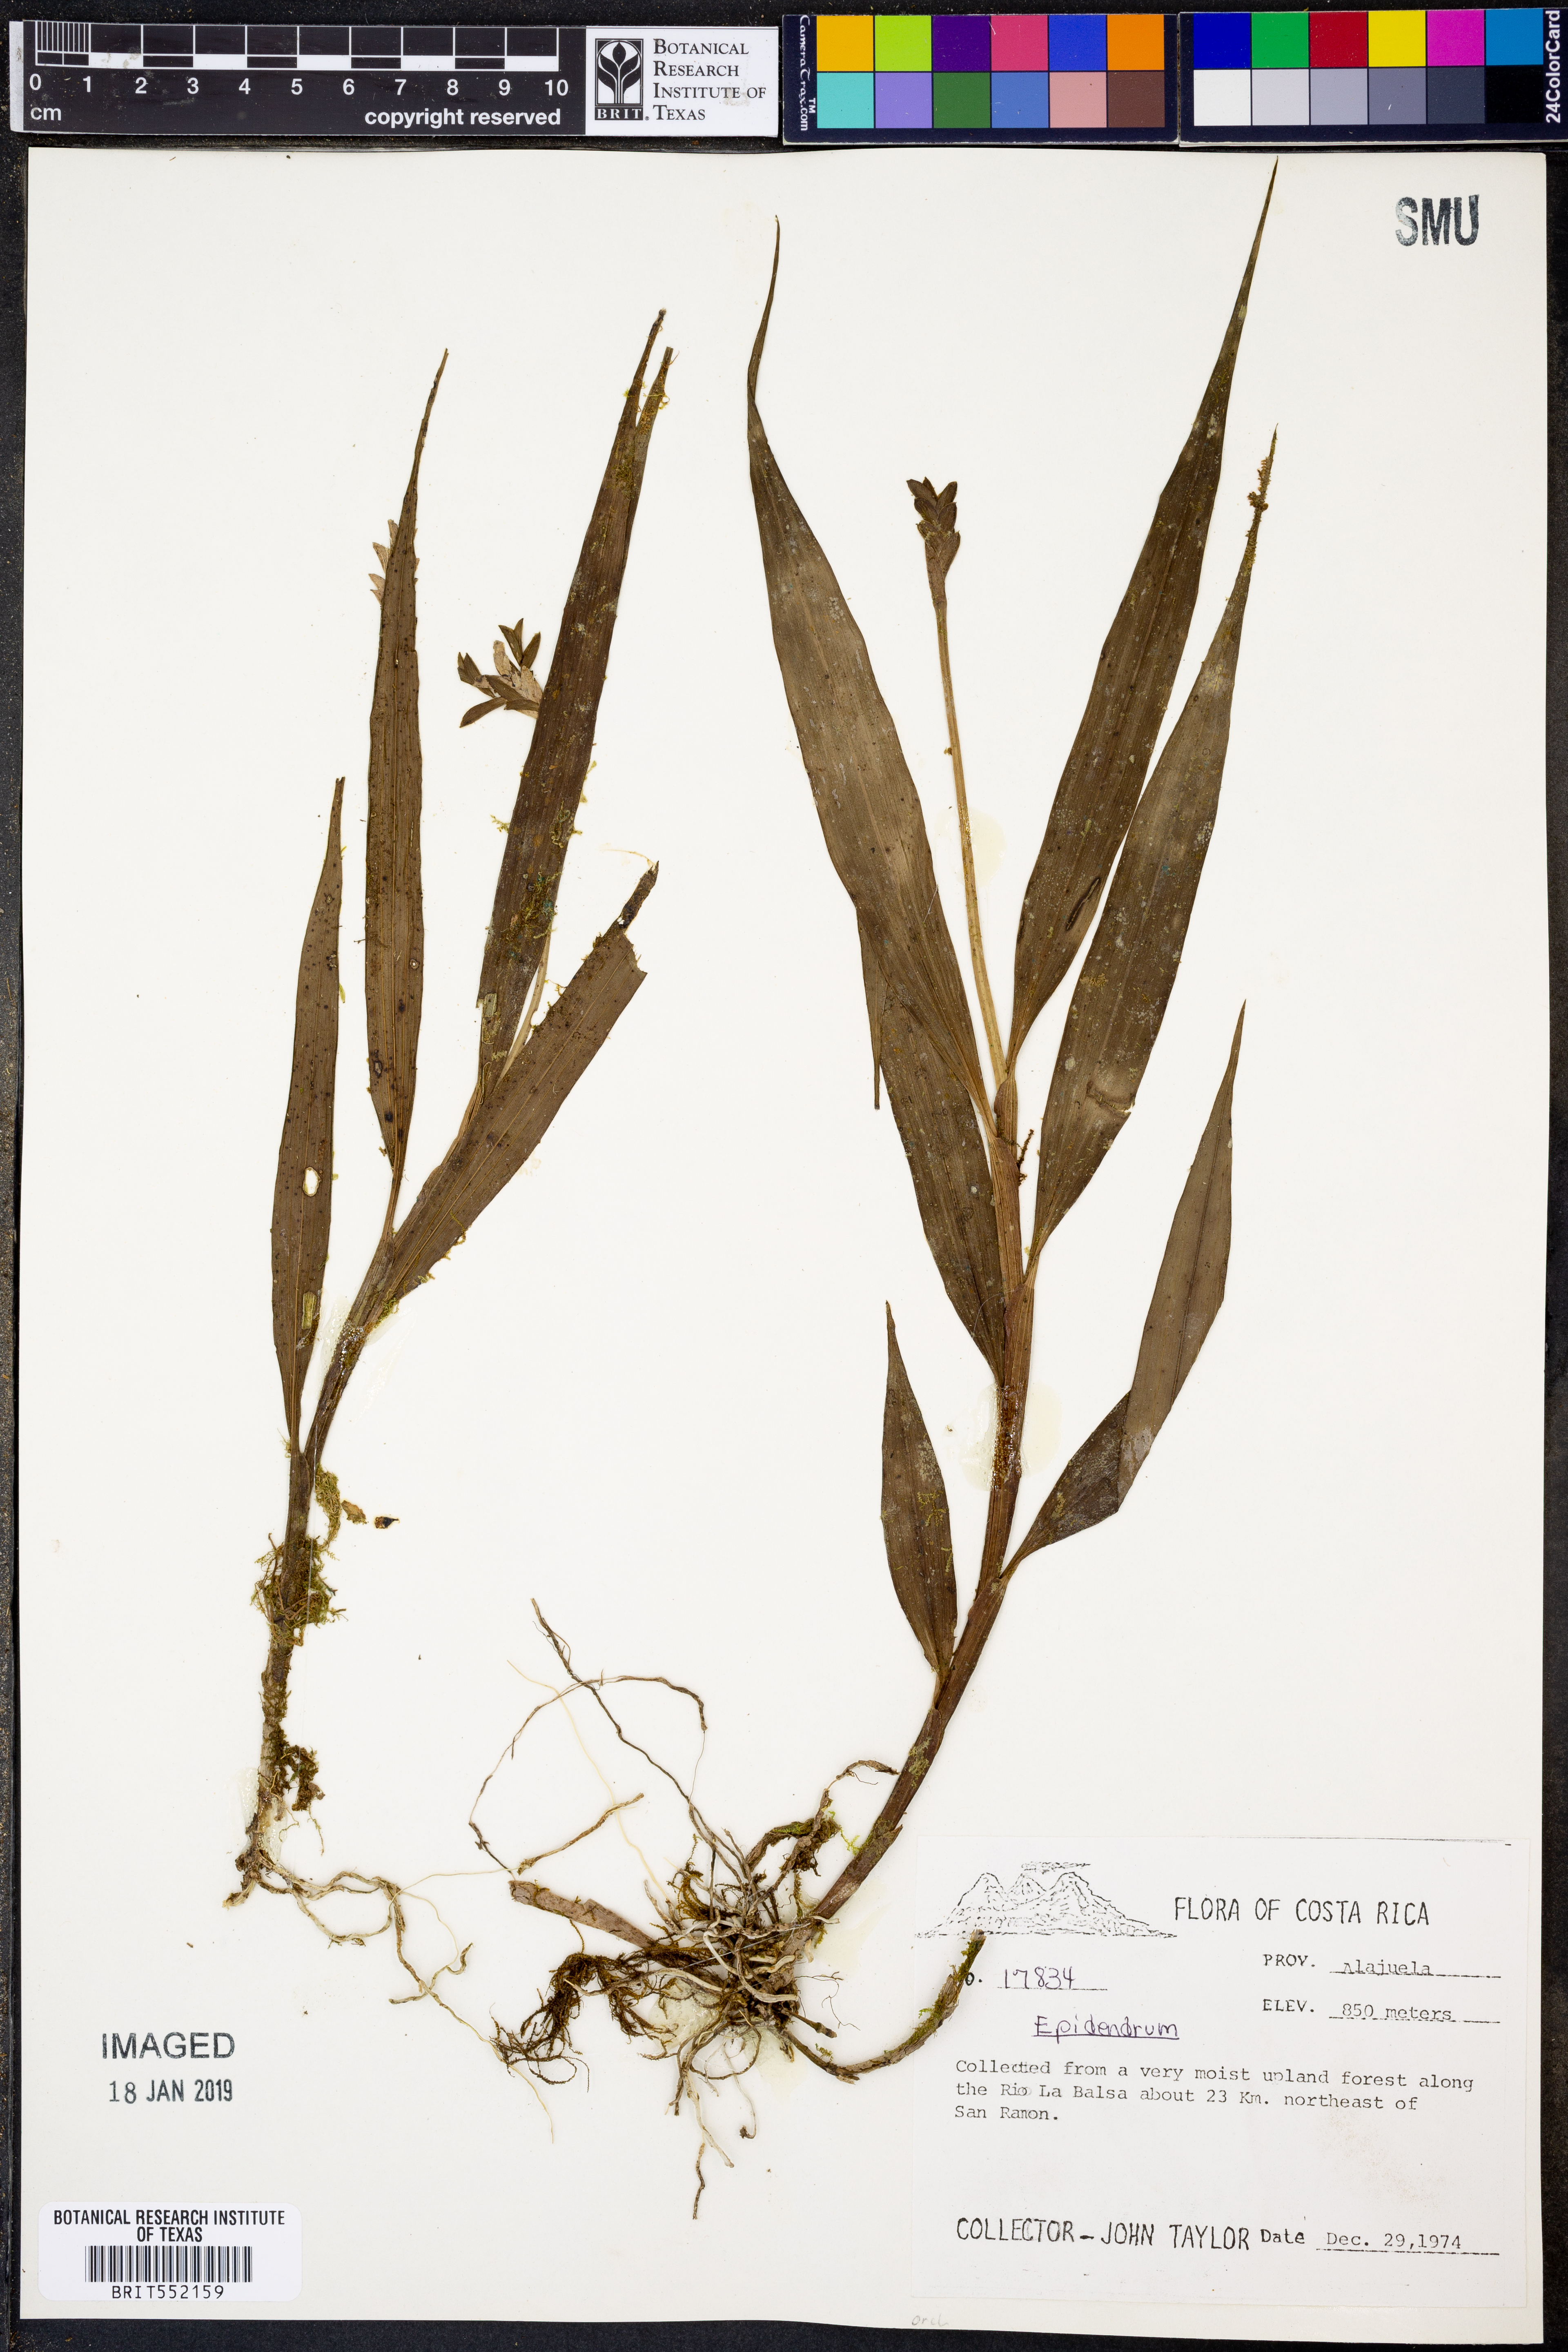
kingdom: Plantae
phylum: Tracheophyta
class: Liliopsida
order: Asparagales
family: Orchidaceae
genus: Epidendrum
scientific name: Epidendrum
